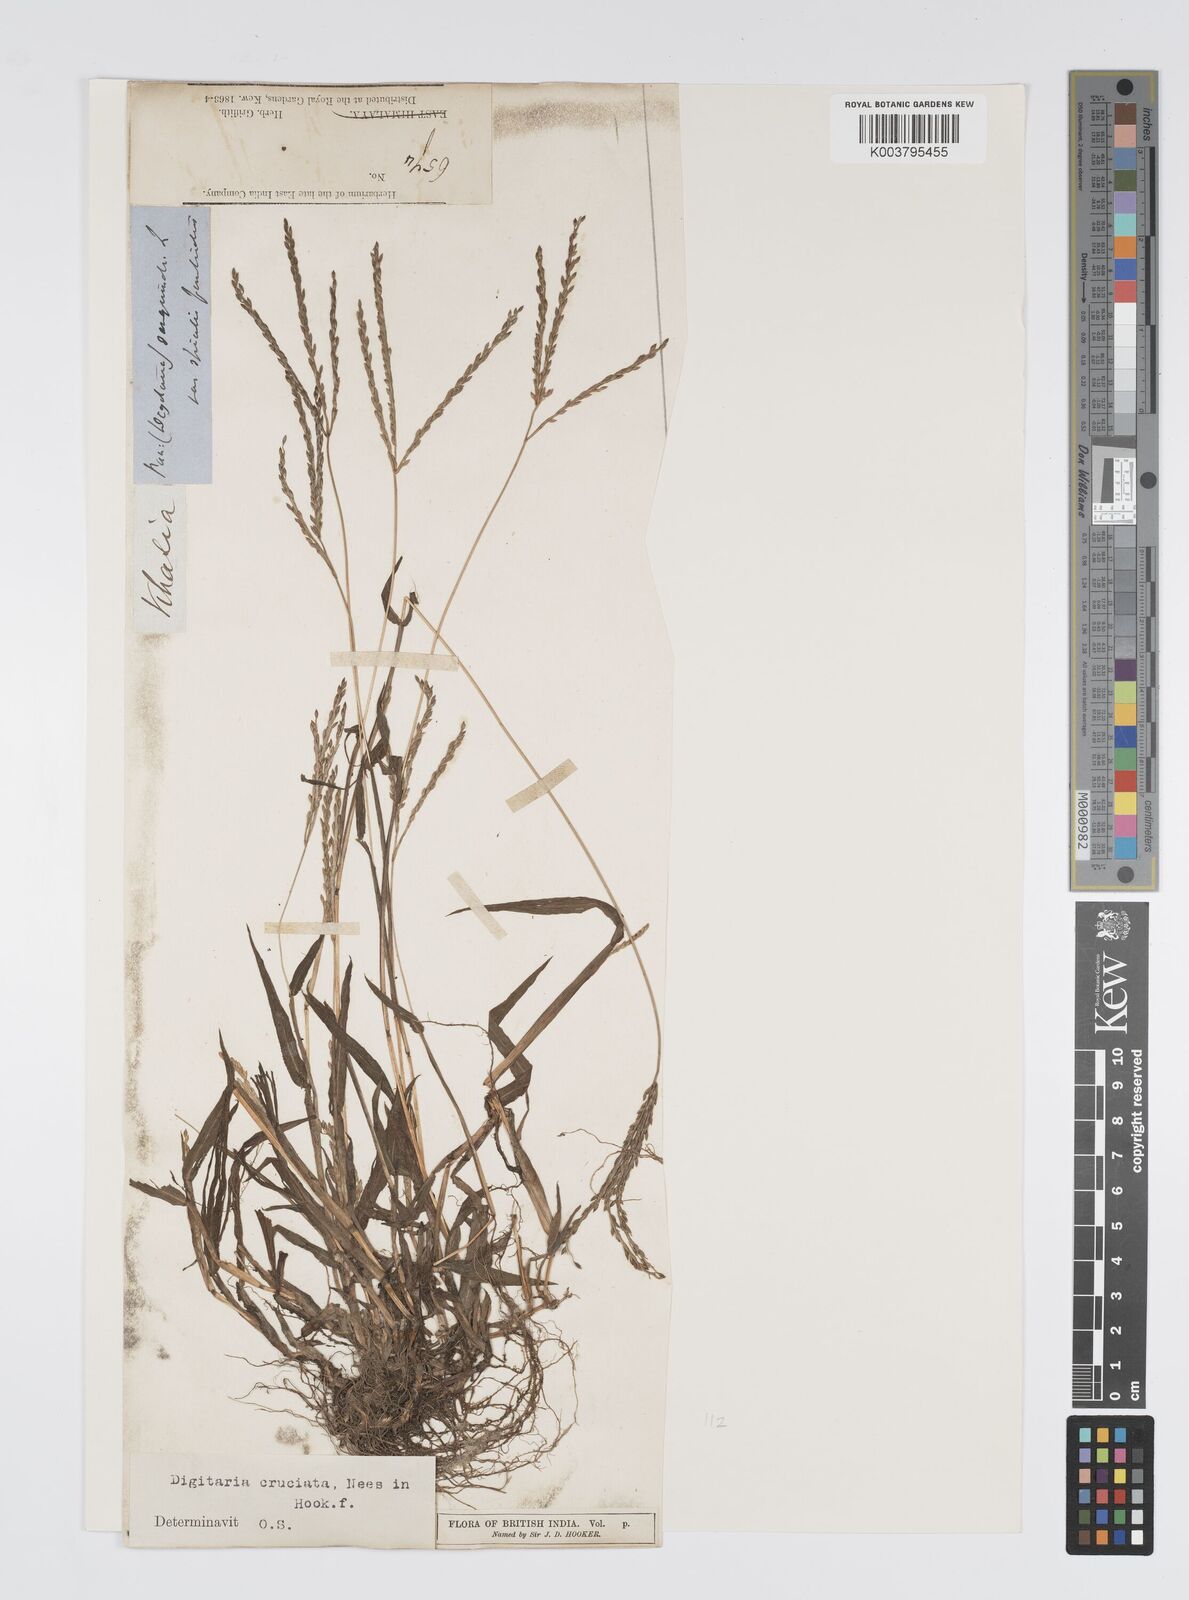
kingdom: Plantae
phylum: Tracheophyta
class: Liliopsida
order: Poales
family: Poaceae
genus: Digitaria
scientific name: Digitaria cruciata
